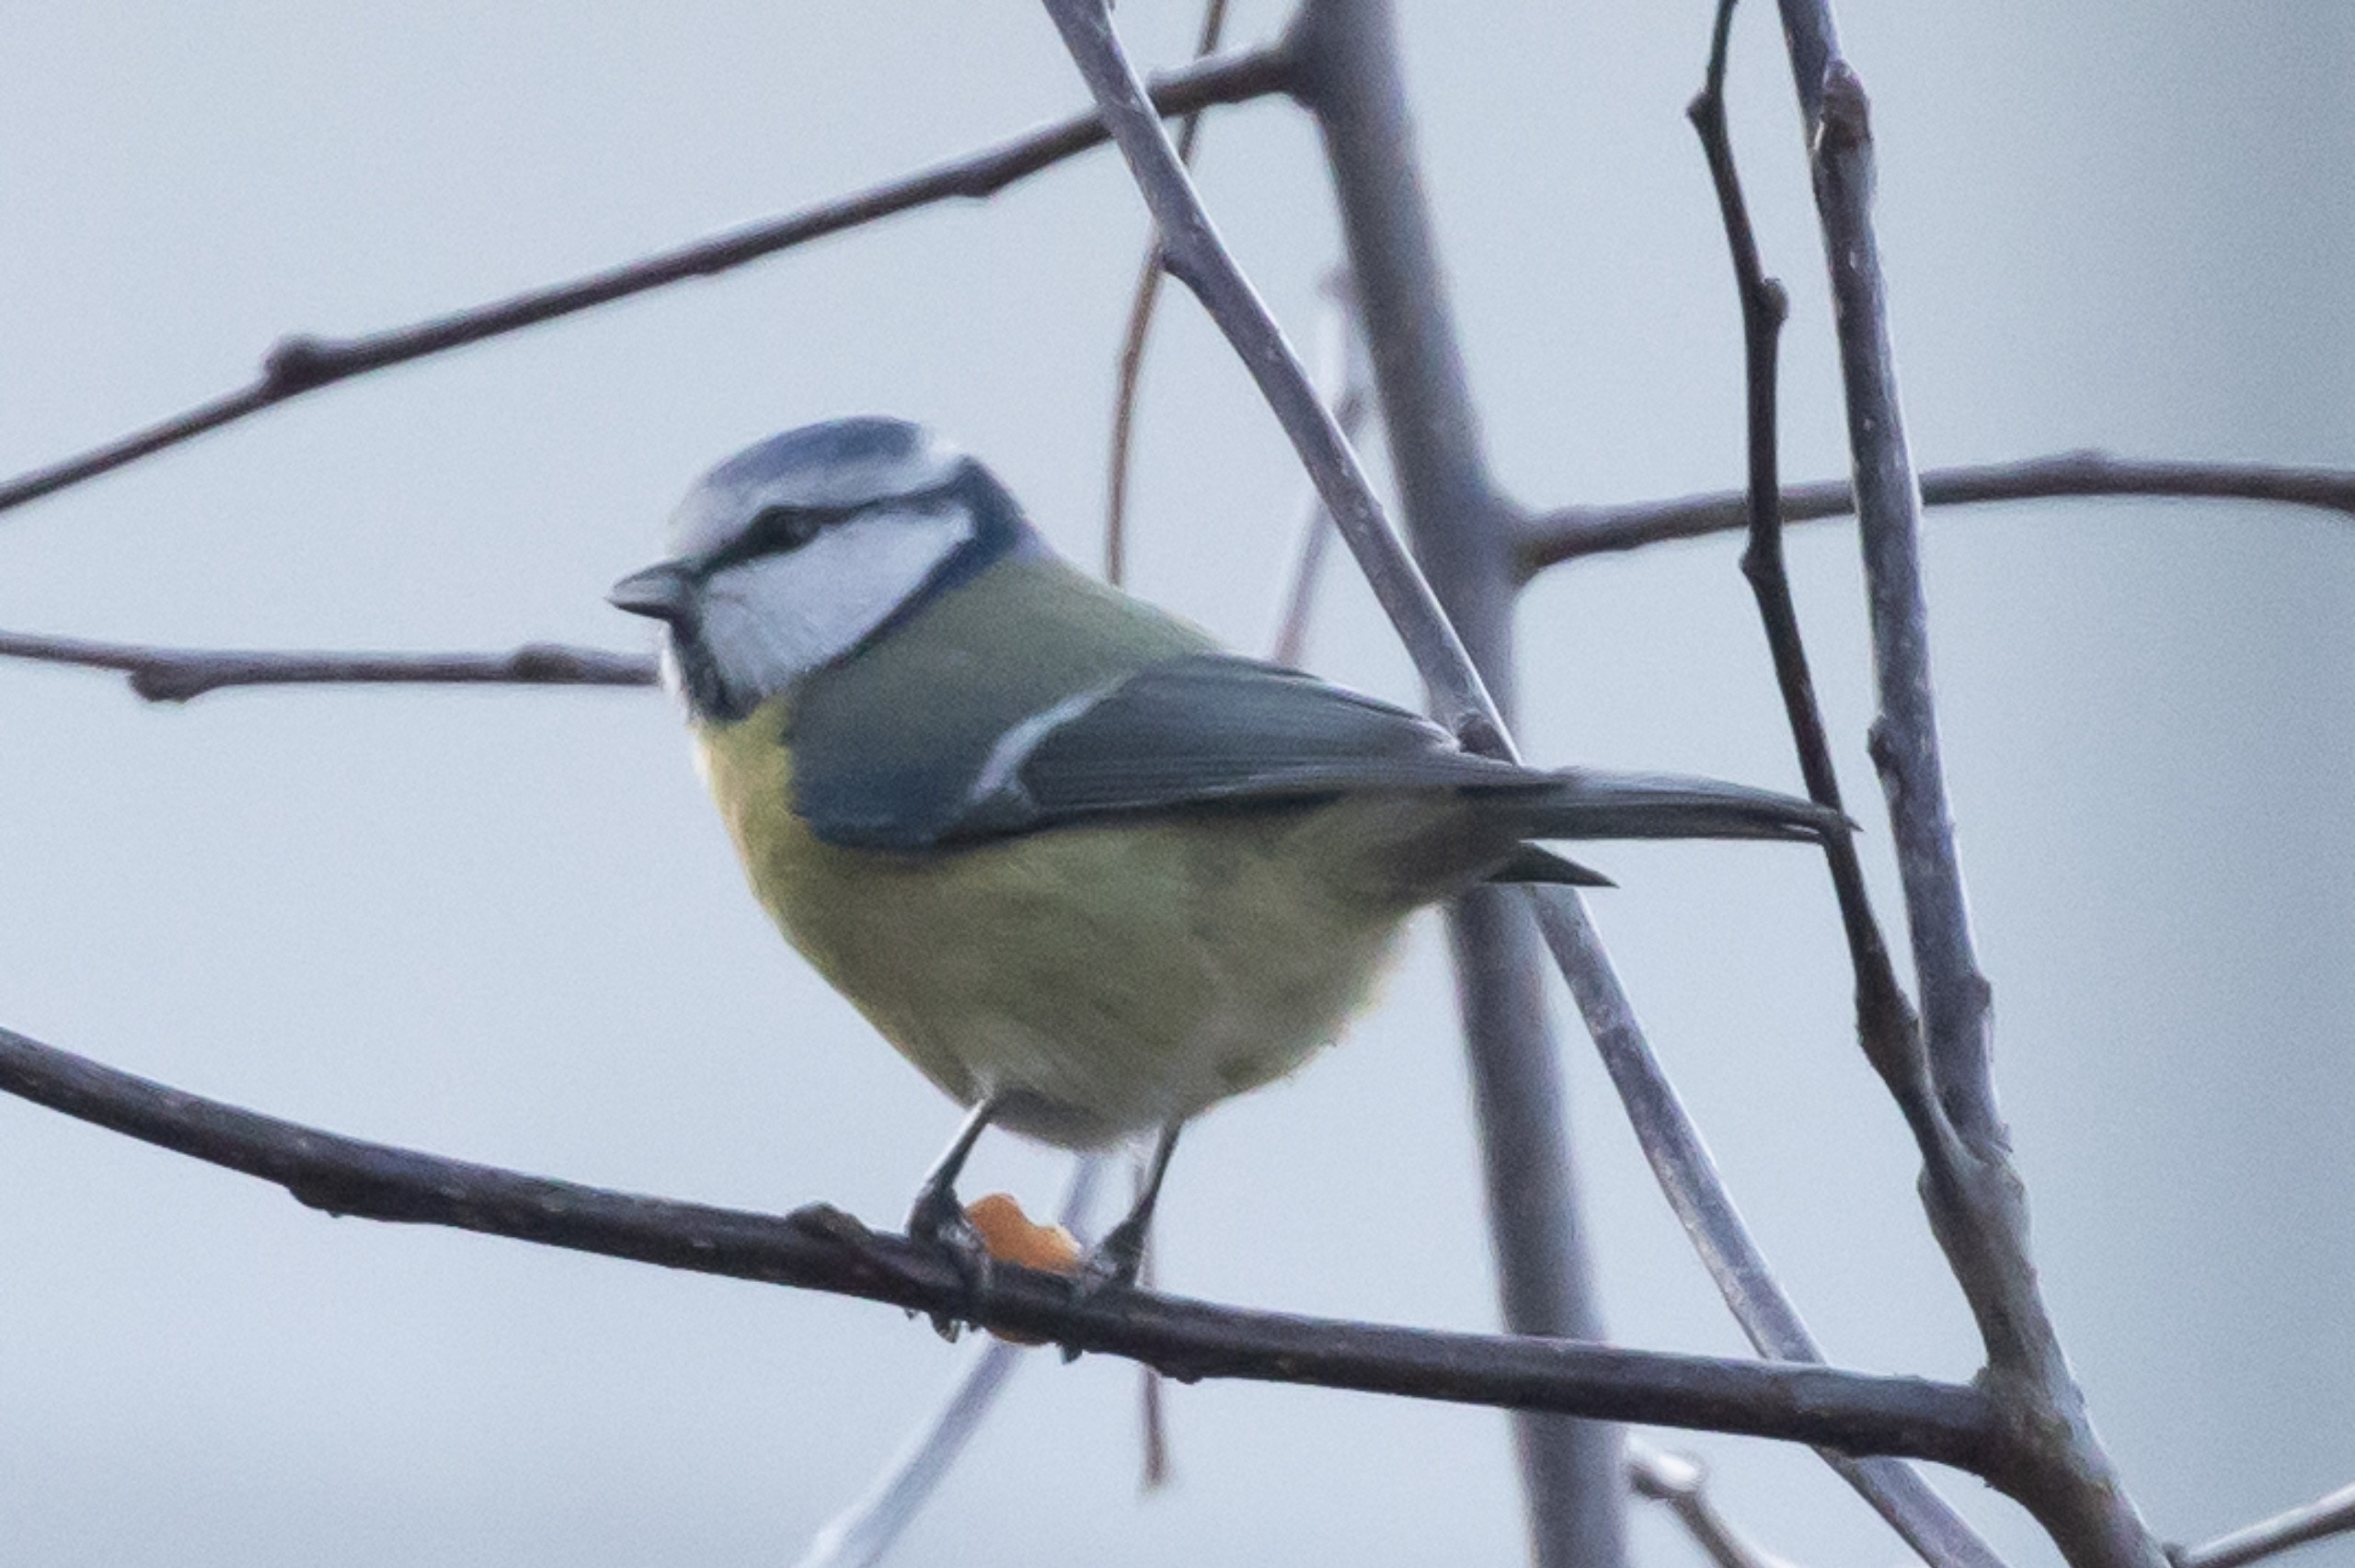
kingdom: Animalia
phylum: Chordata
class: Aves
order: Passeriformes
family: Paridae
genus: Cyanistes
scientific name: Cyanistes caeruleus
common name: Blåmejse
